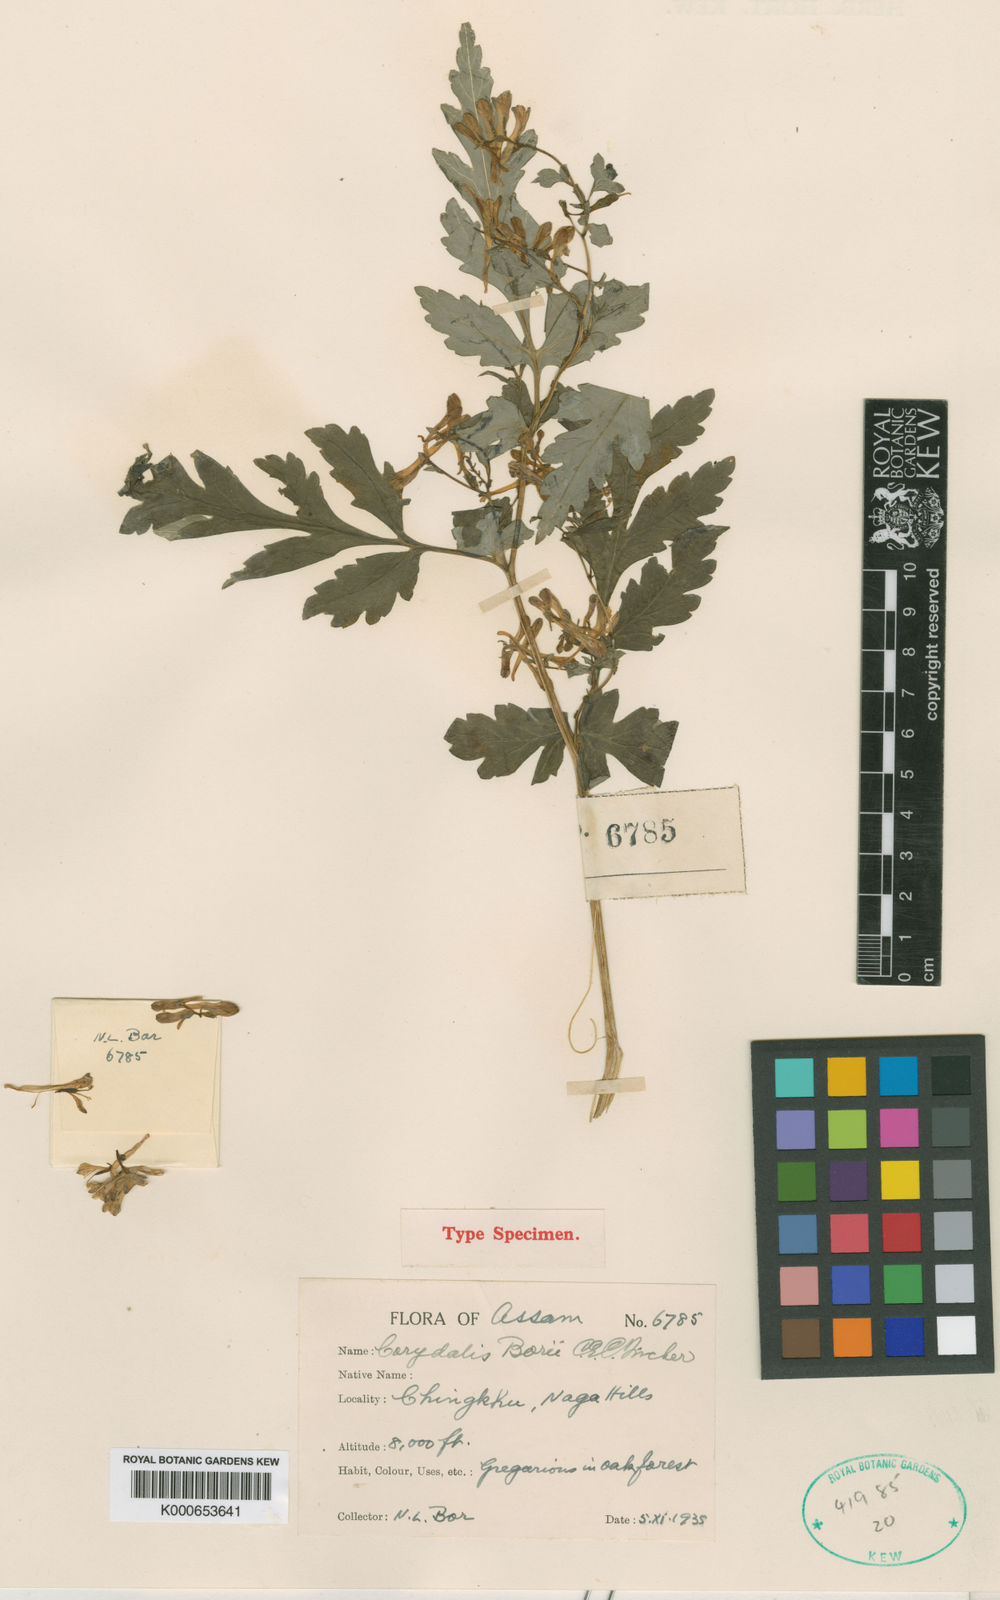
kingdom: Plantae
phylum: Tracheophyta
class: Magnoliopsida
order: Ranunculales
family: Papaveraceae
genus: Corydalis
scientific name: Corydalis borii
